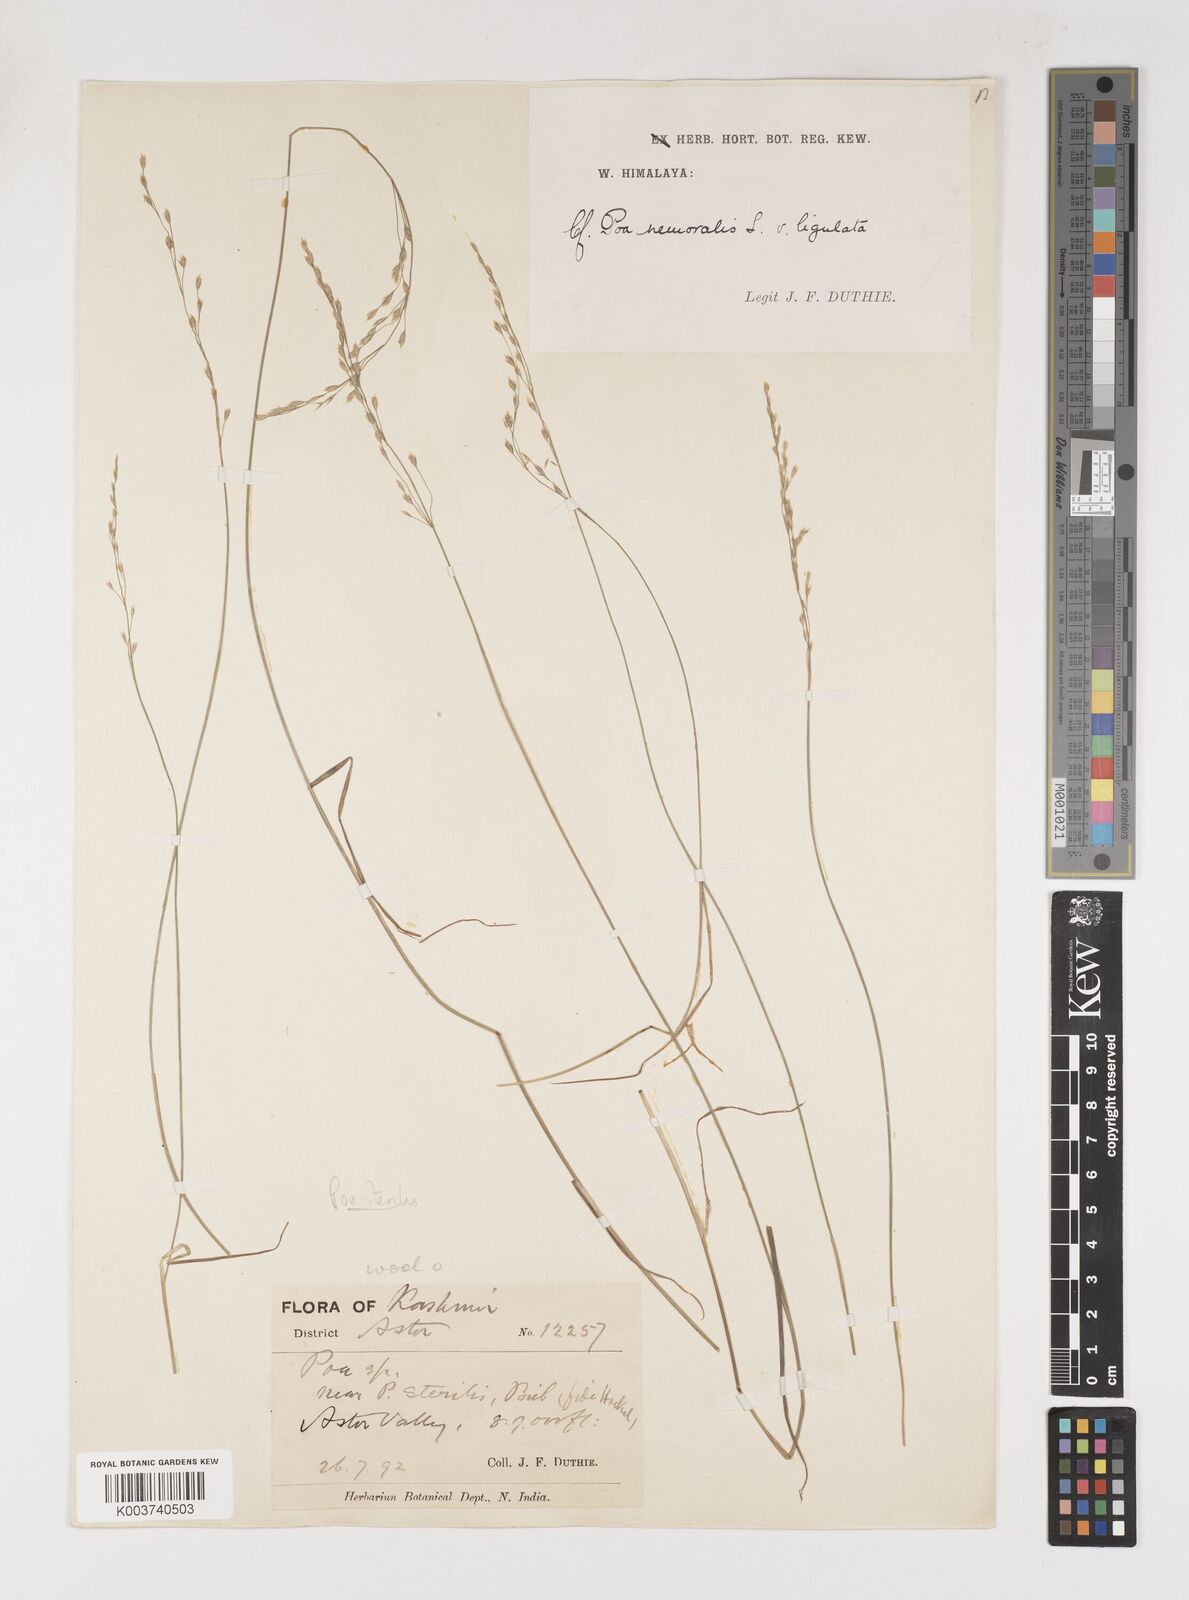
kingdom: Plantae
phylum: Tracheophyta
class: Liliopsida
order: Poales
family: Poaceae
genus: Poa
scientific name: Poa sterilis
